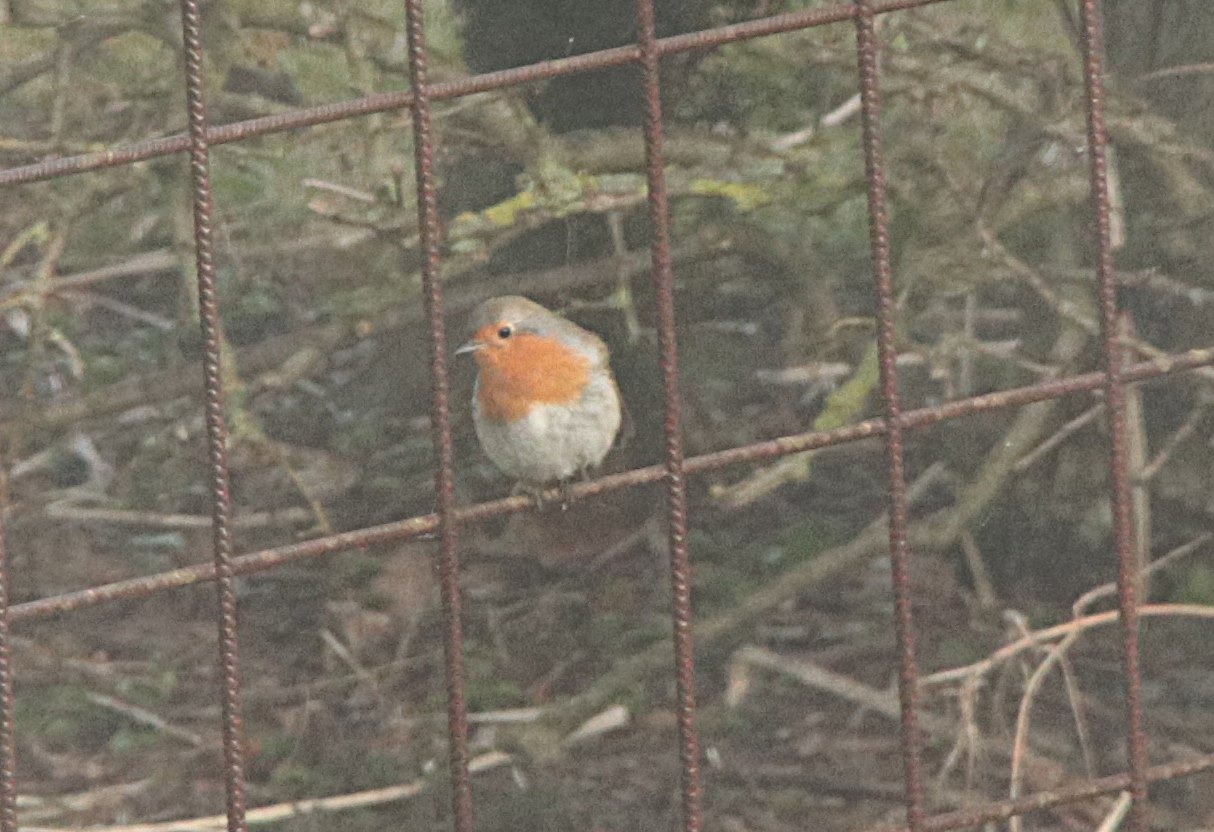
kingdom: Animalia
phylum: Chordata
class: Aves
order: Passeriformes
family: Muscicapidae
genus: Erithacus
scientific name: Erithacus rubecula
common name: Rødhals/rødkælk
